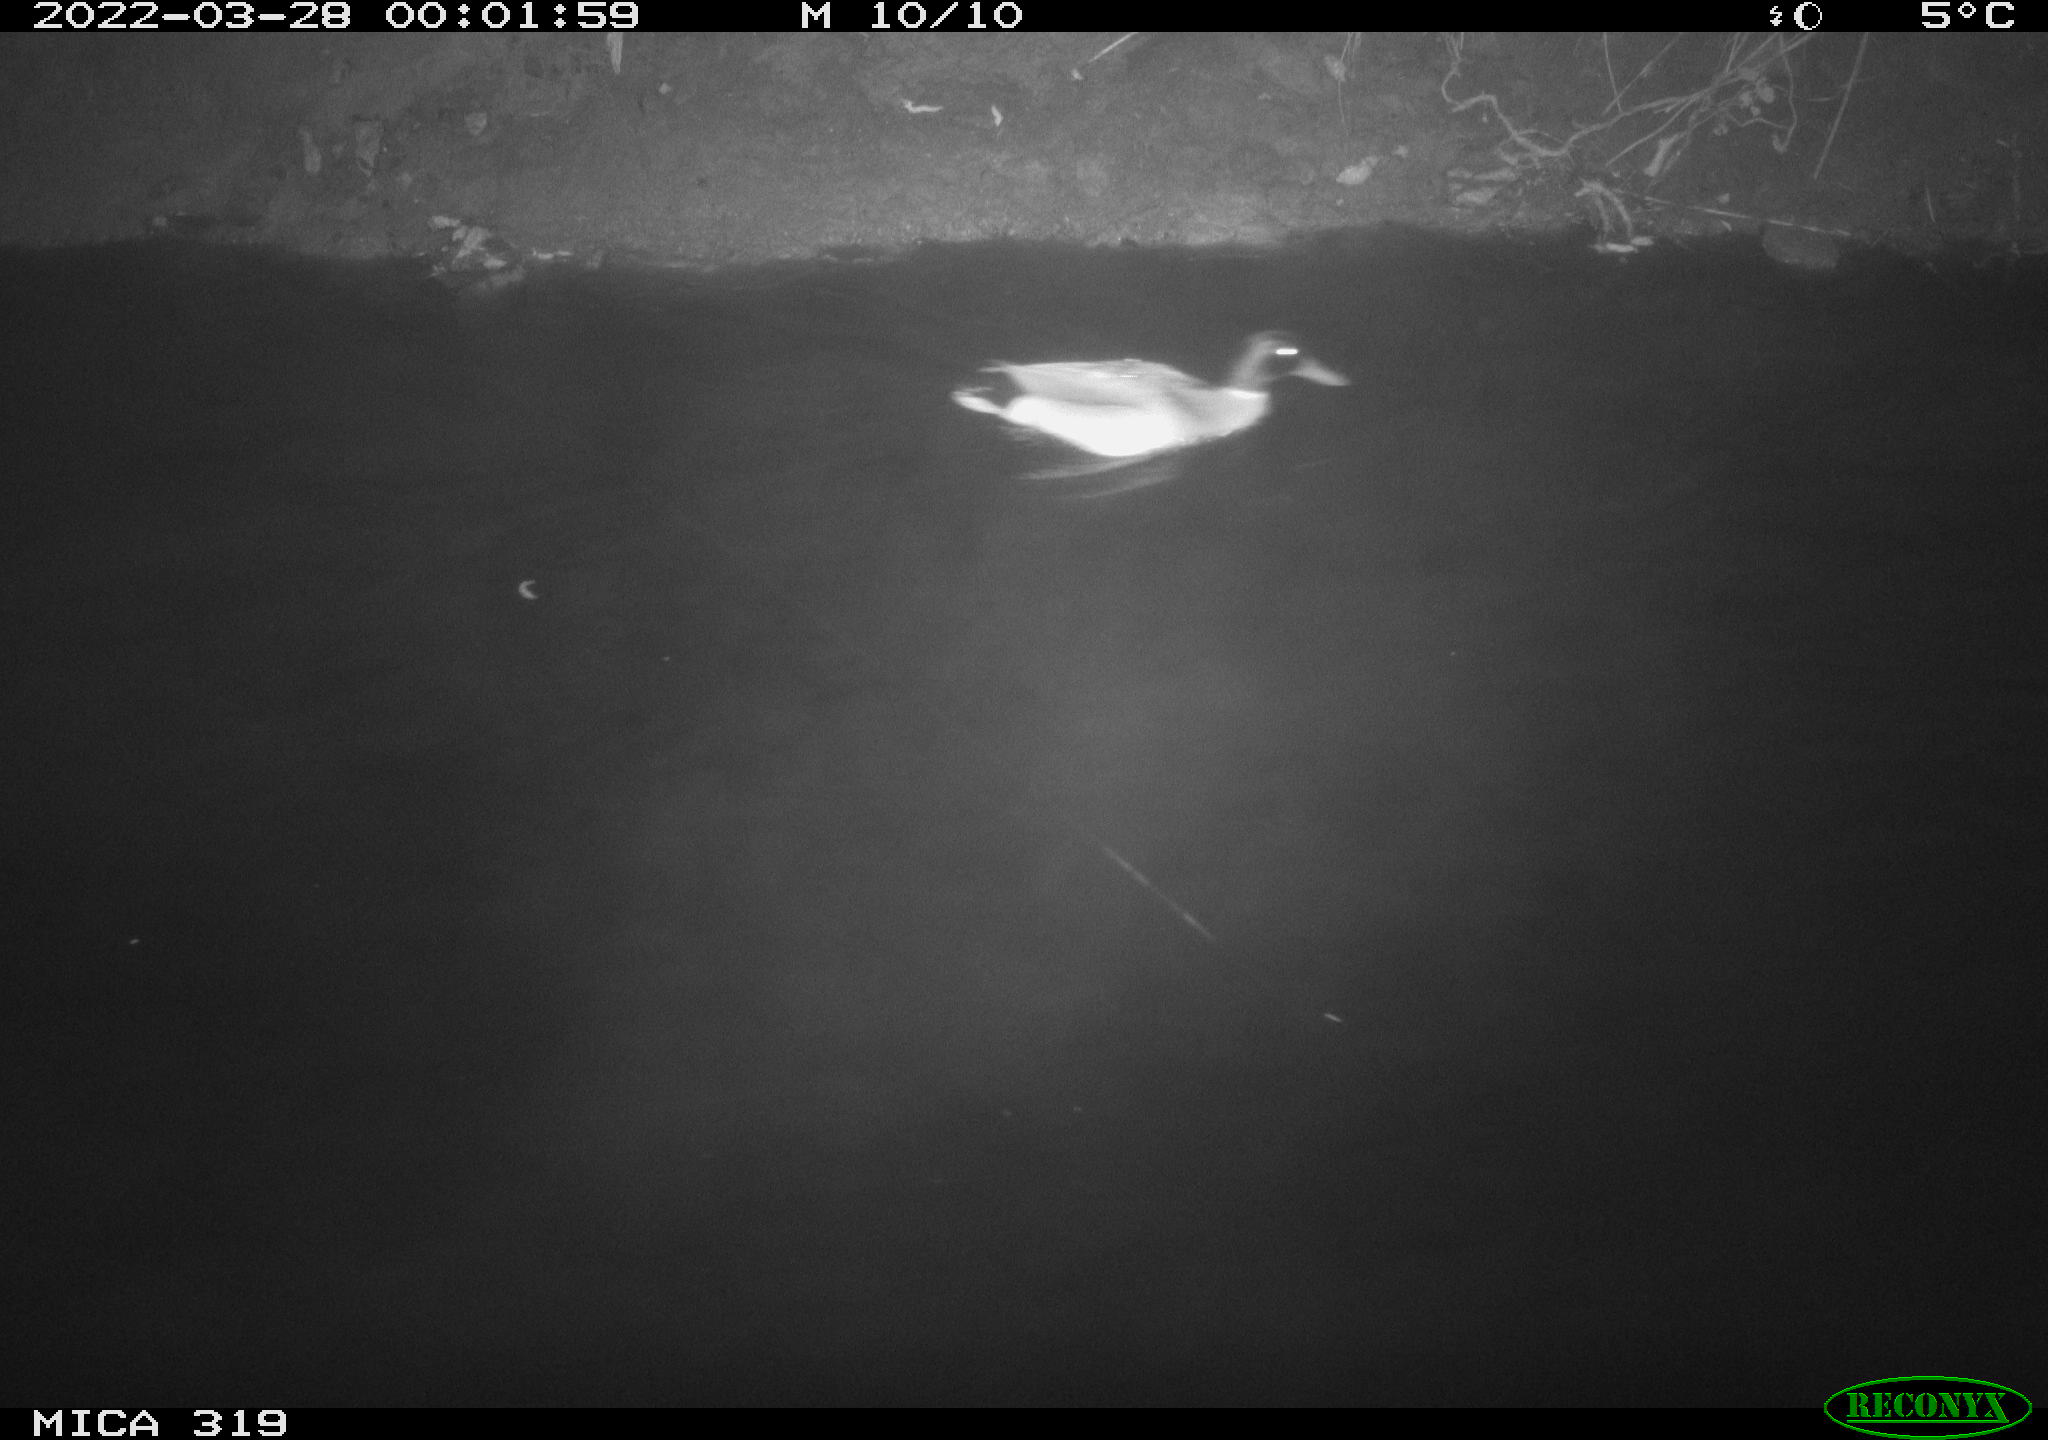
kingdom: Animalia
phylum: Chordata
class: Aves
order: Anseriformes
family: Anatidae
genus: Anas
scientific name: Anas platyrhynchos
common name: Mallard
